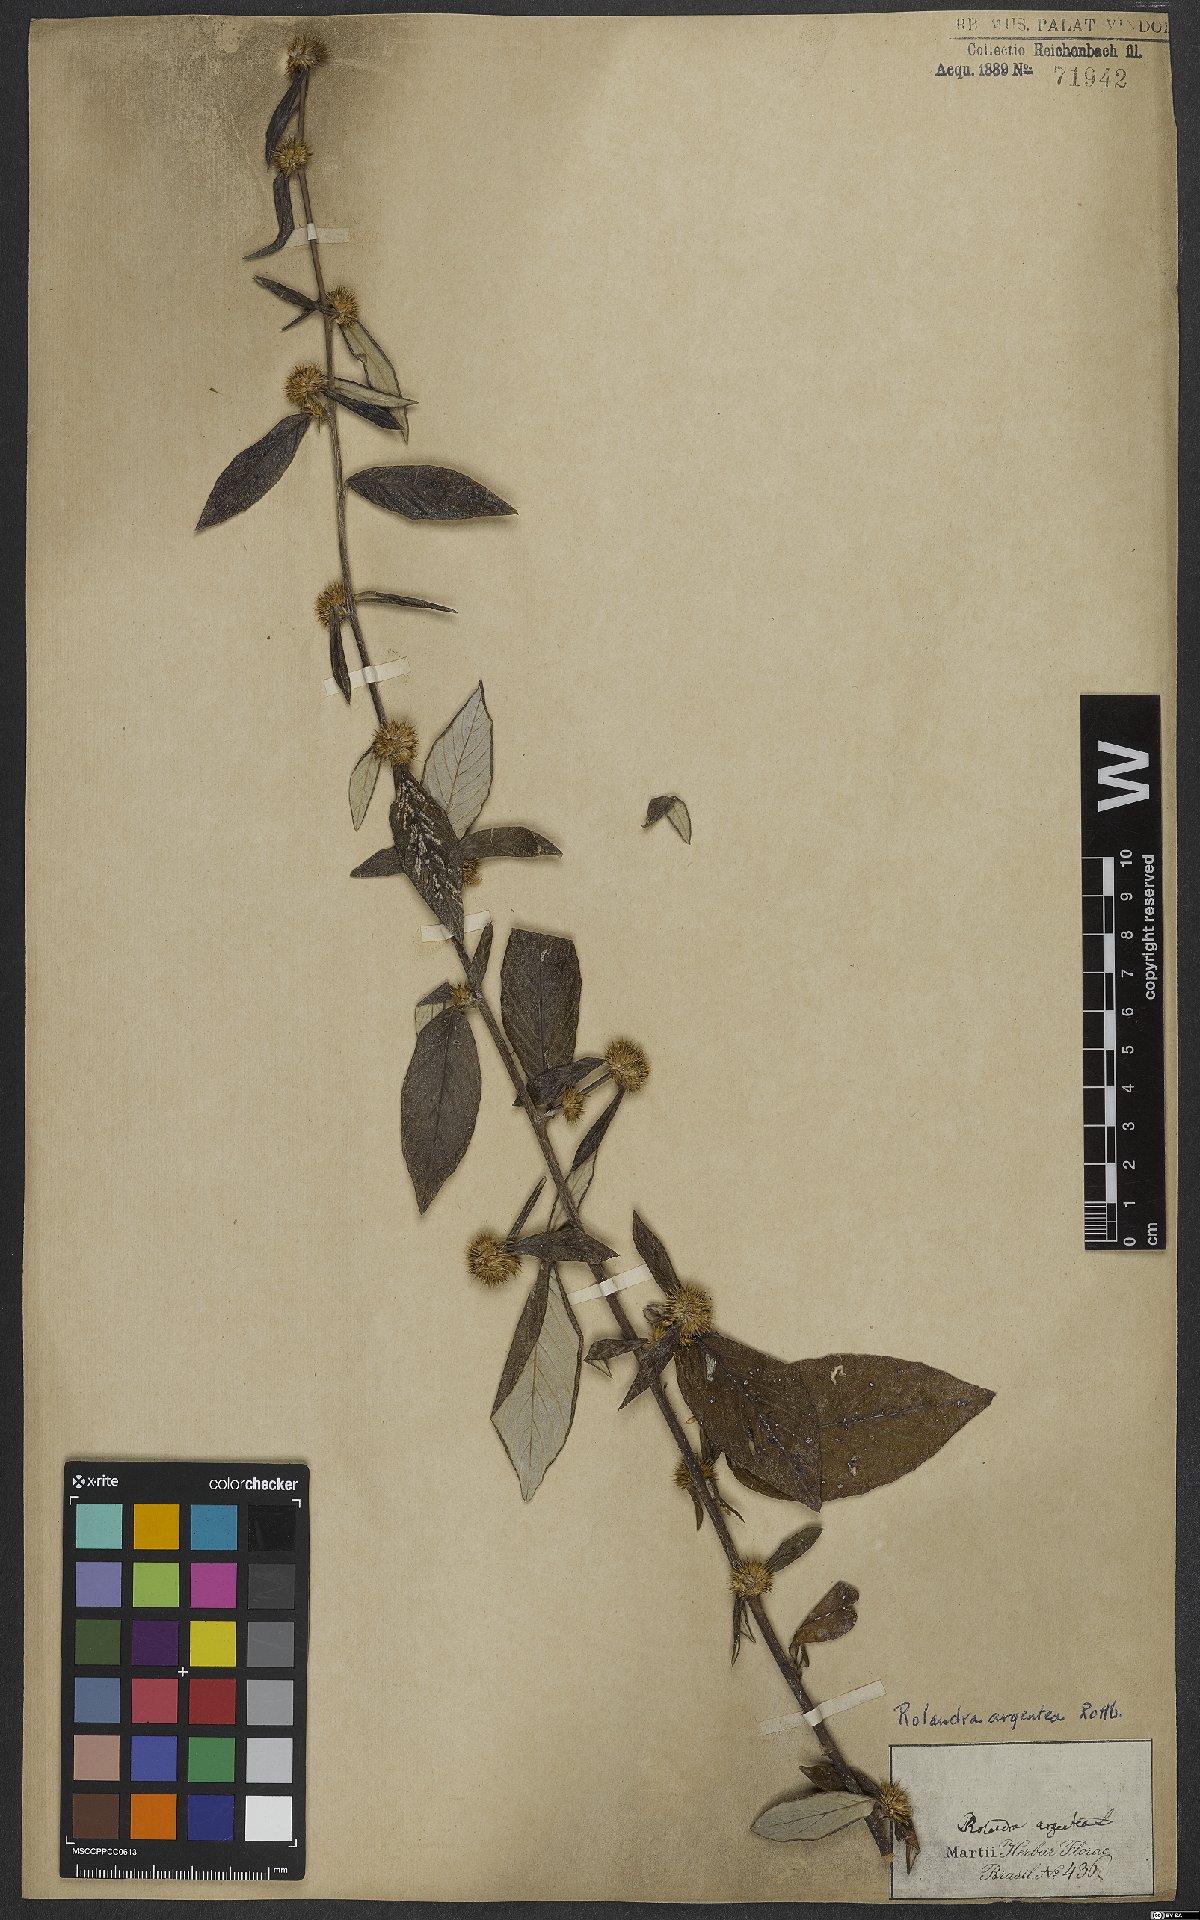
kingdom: Plantae
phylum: Tracheophyta
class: Magnoliopsida
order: Asterales
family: Asteraceae
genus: Rolandra
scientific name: Rolandra fruticosa
